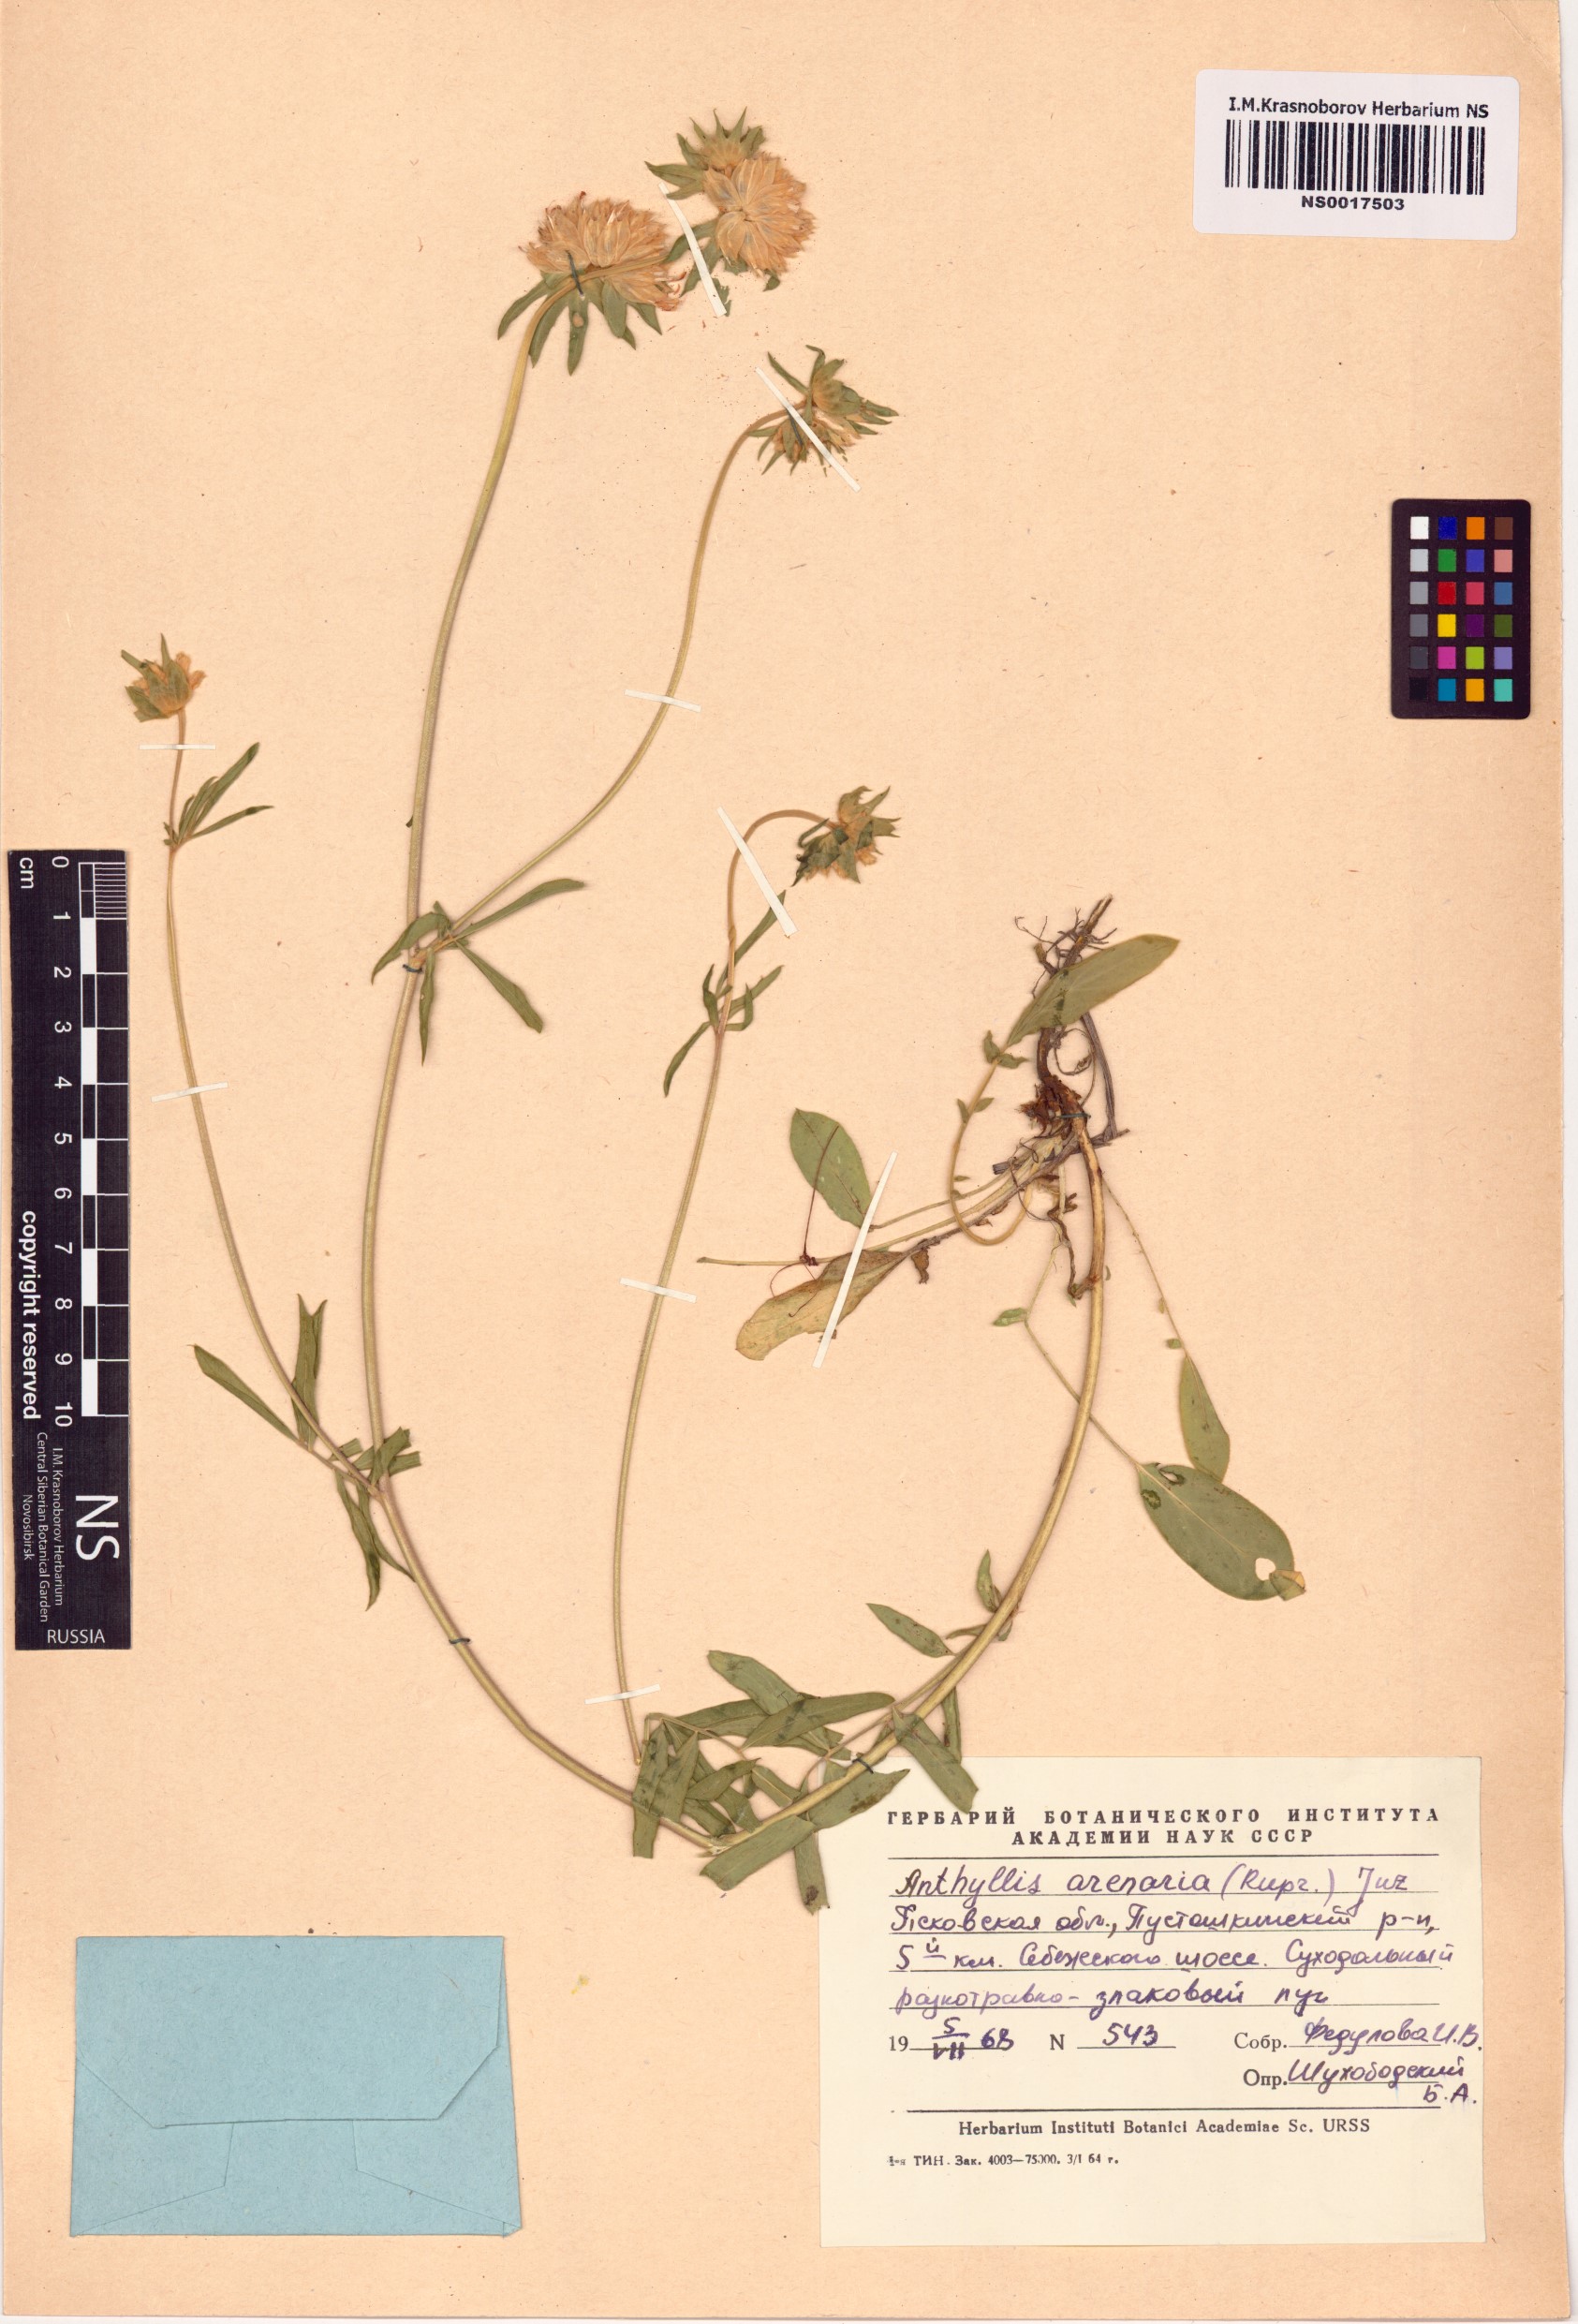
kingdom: Plantae
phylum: Tracheophyta
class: Magnoliopsida
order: Fabales
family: Fabaceae
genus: Anthyllis
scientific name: Anthyllis vulneraria
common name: Kidney vetch
